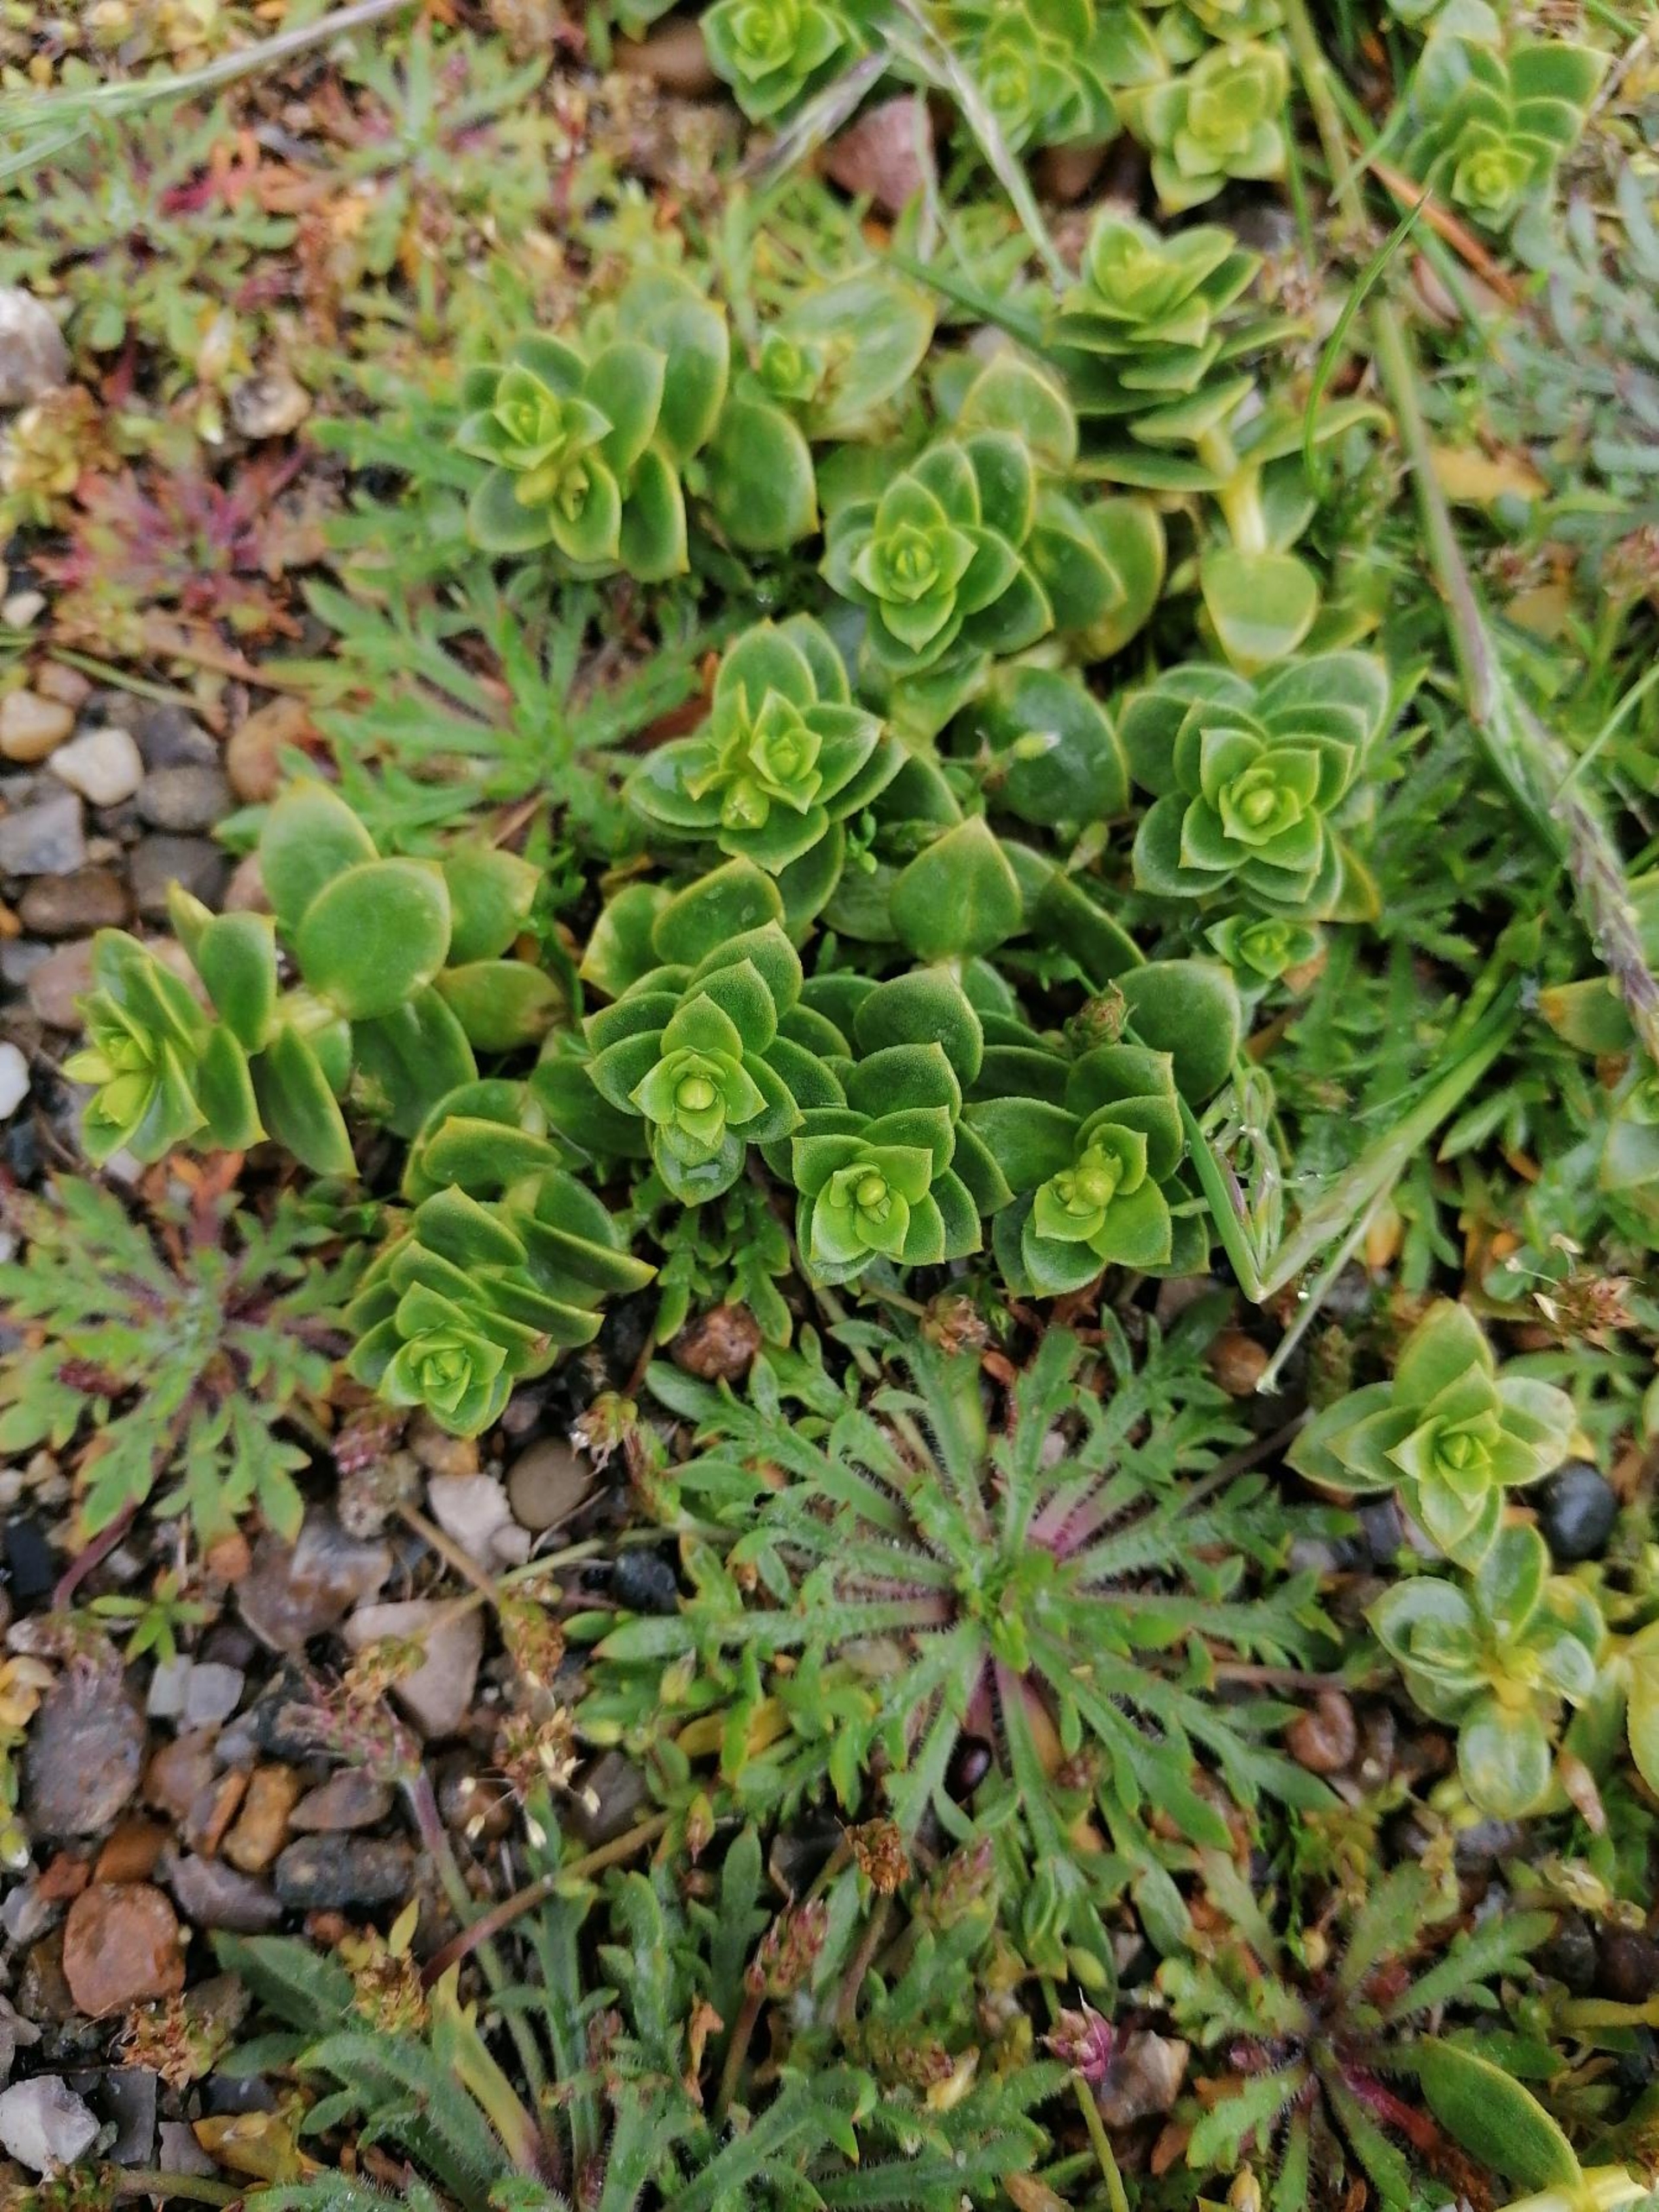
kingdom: Plantae
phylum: Tracheophyta
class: Magnoliopsida
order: Caryophyllales
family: Caryophyllaceae
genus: Honckenya
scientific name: Honckenya peploides
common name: Strandarve
